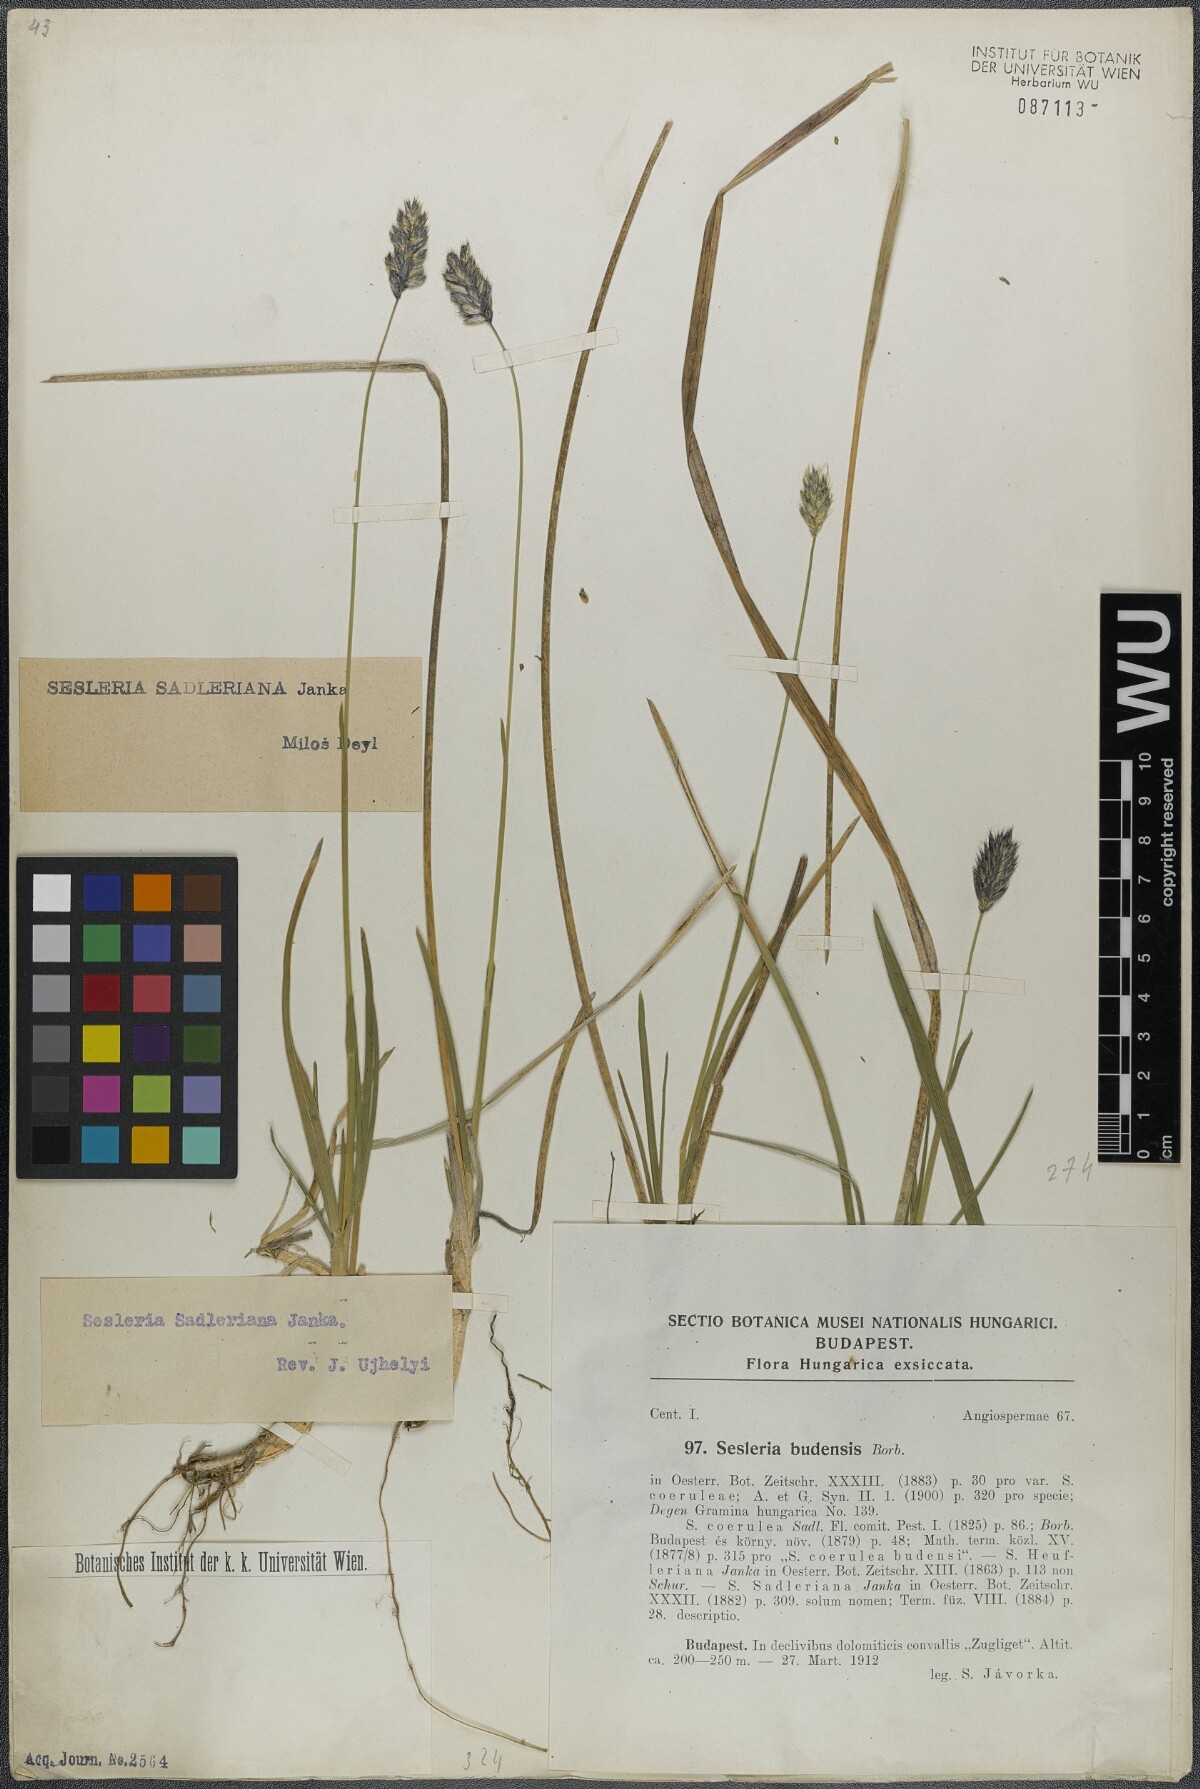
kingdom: Plantae
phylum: Tracheophyta
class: Liliopsida
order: Poales
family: Poaceae
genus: Sesleria
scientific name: Sesleria sadleriana
